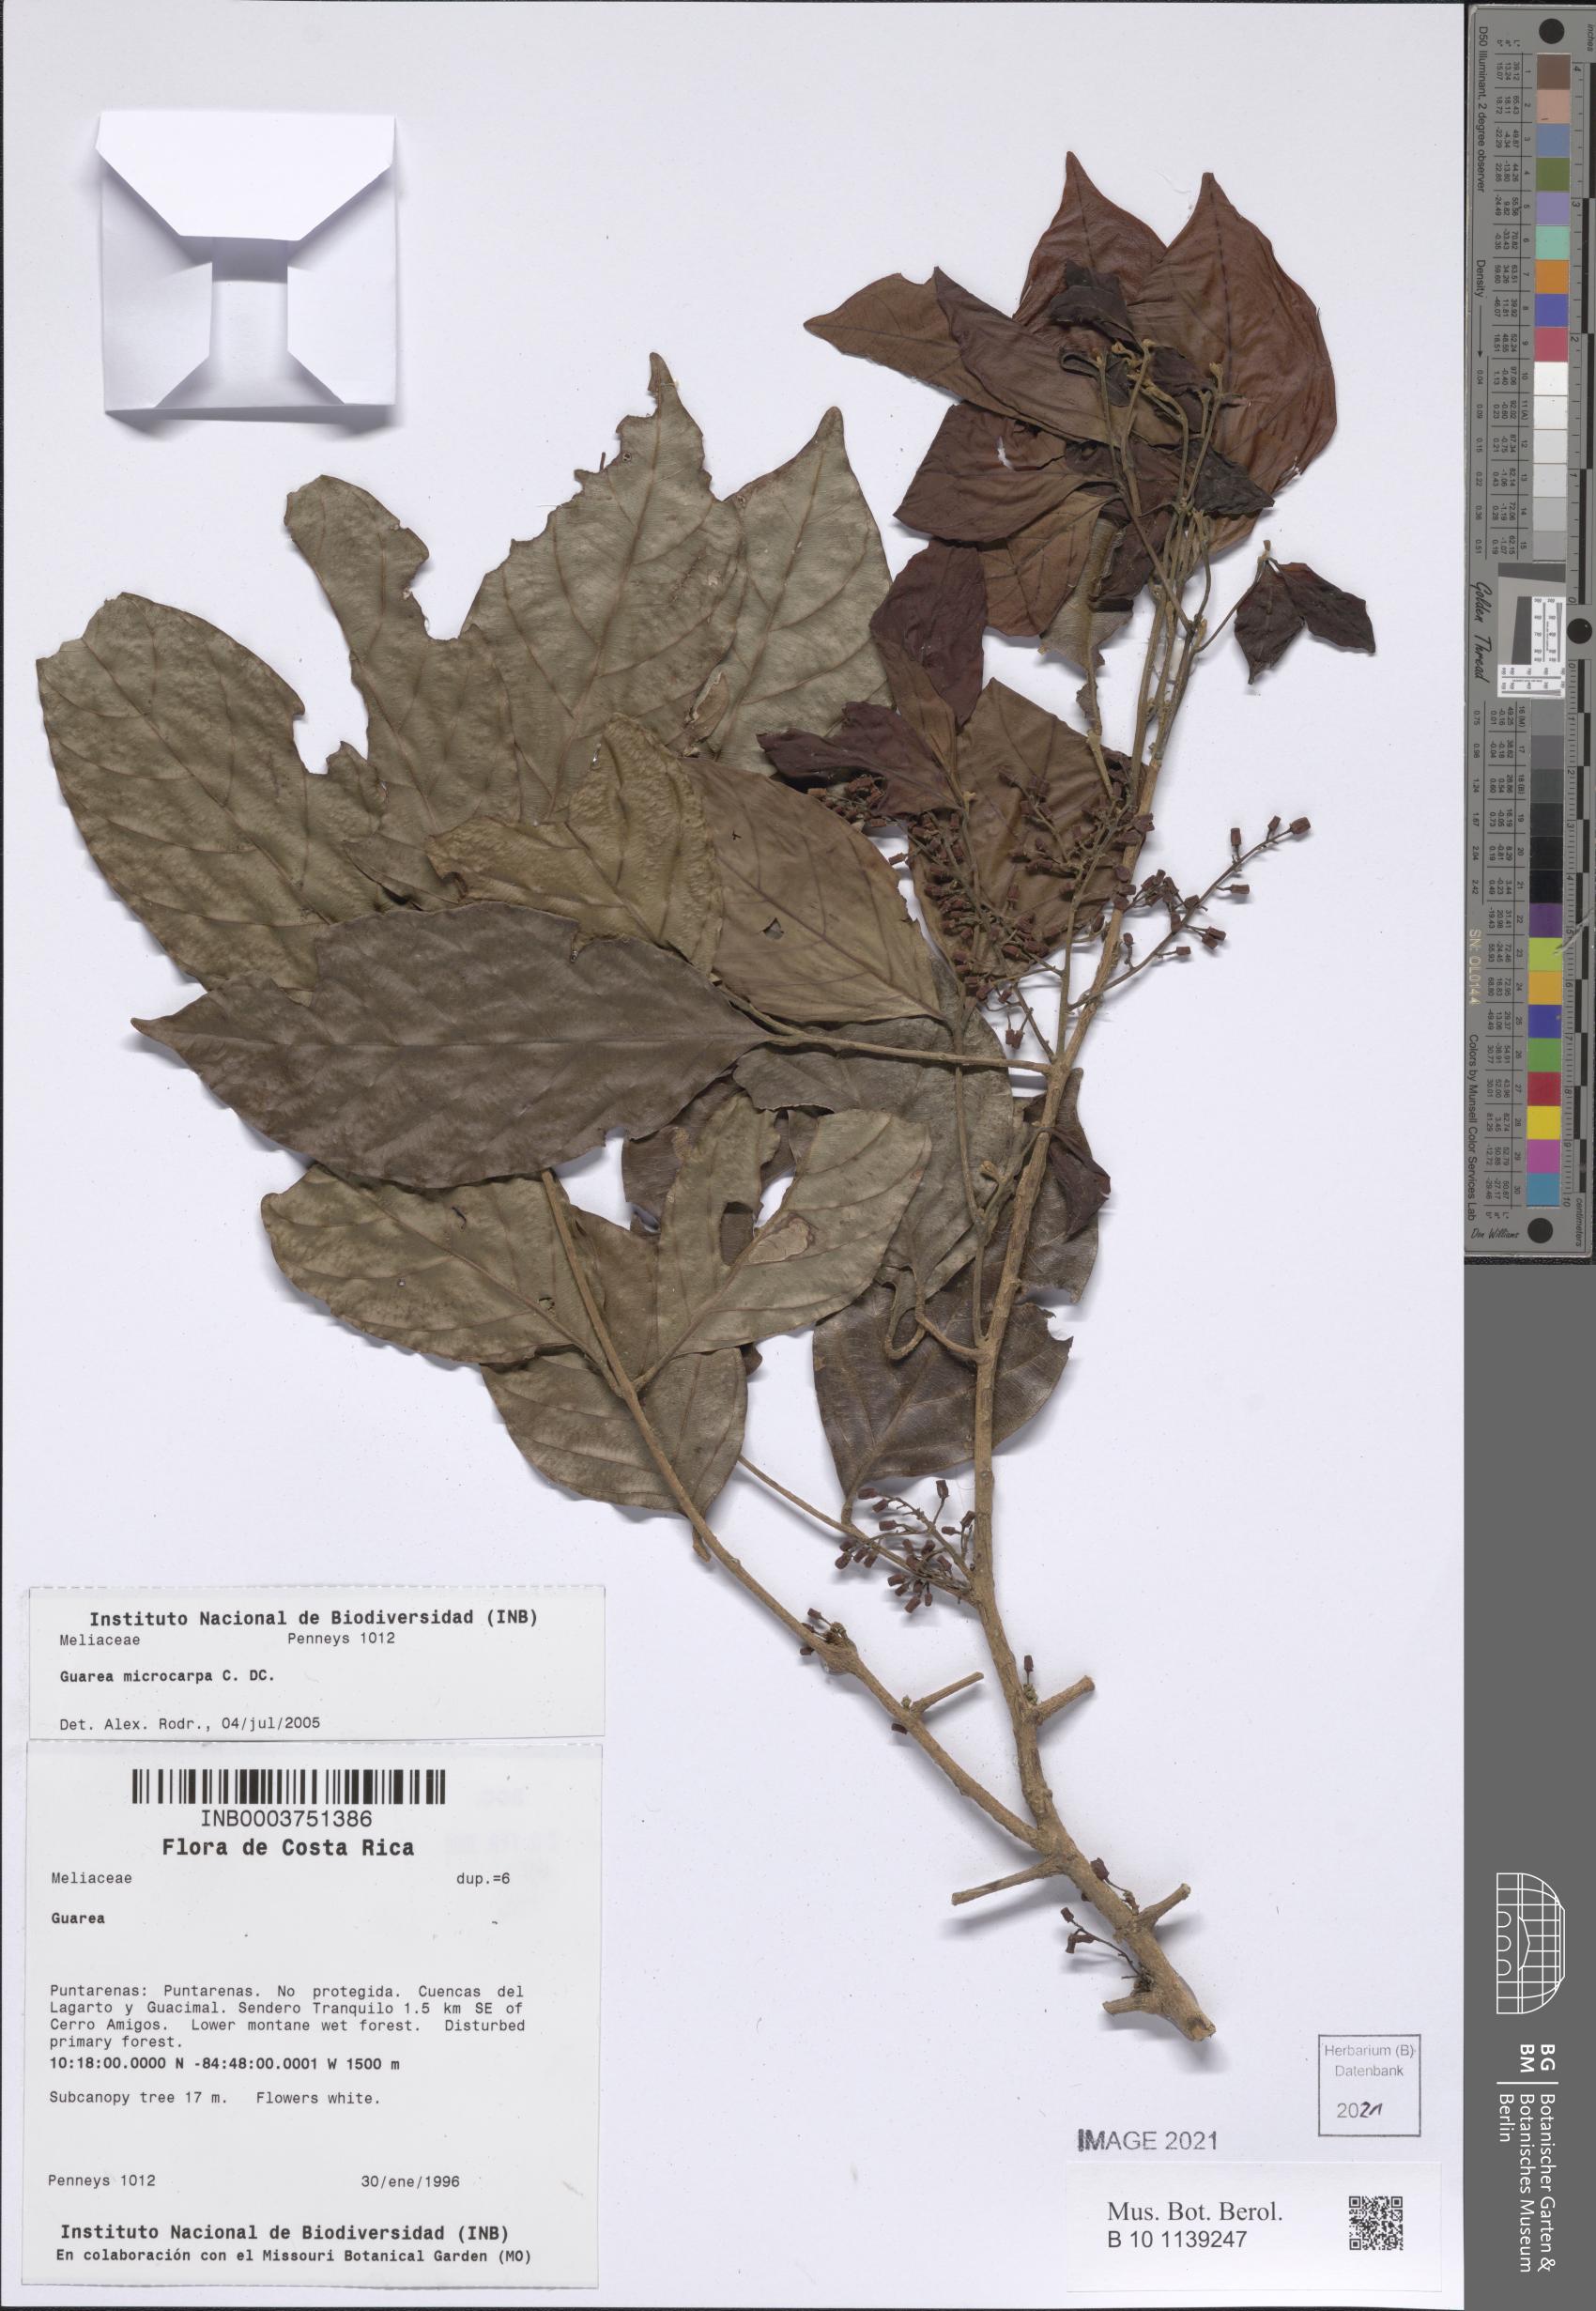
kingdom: Plantae
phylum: Tracheophyta
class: Magnoliopsida
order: Sapindales
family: Meliaceae
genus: Guarea
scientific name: Guarea glabra
